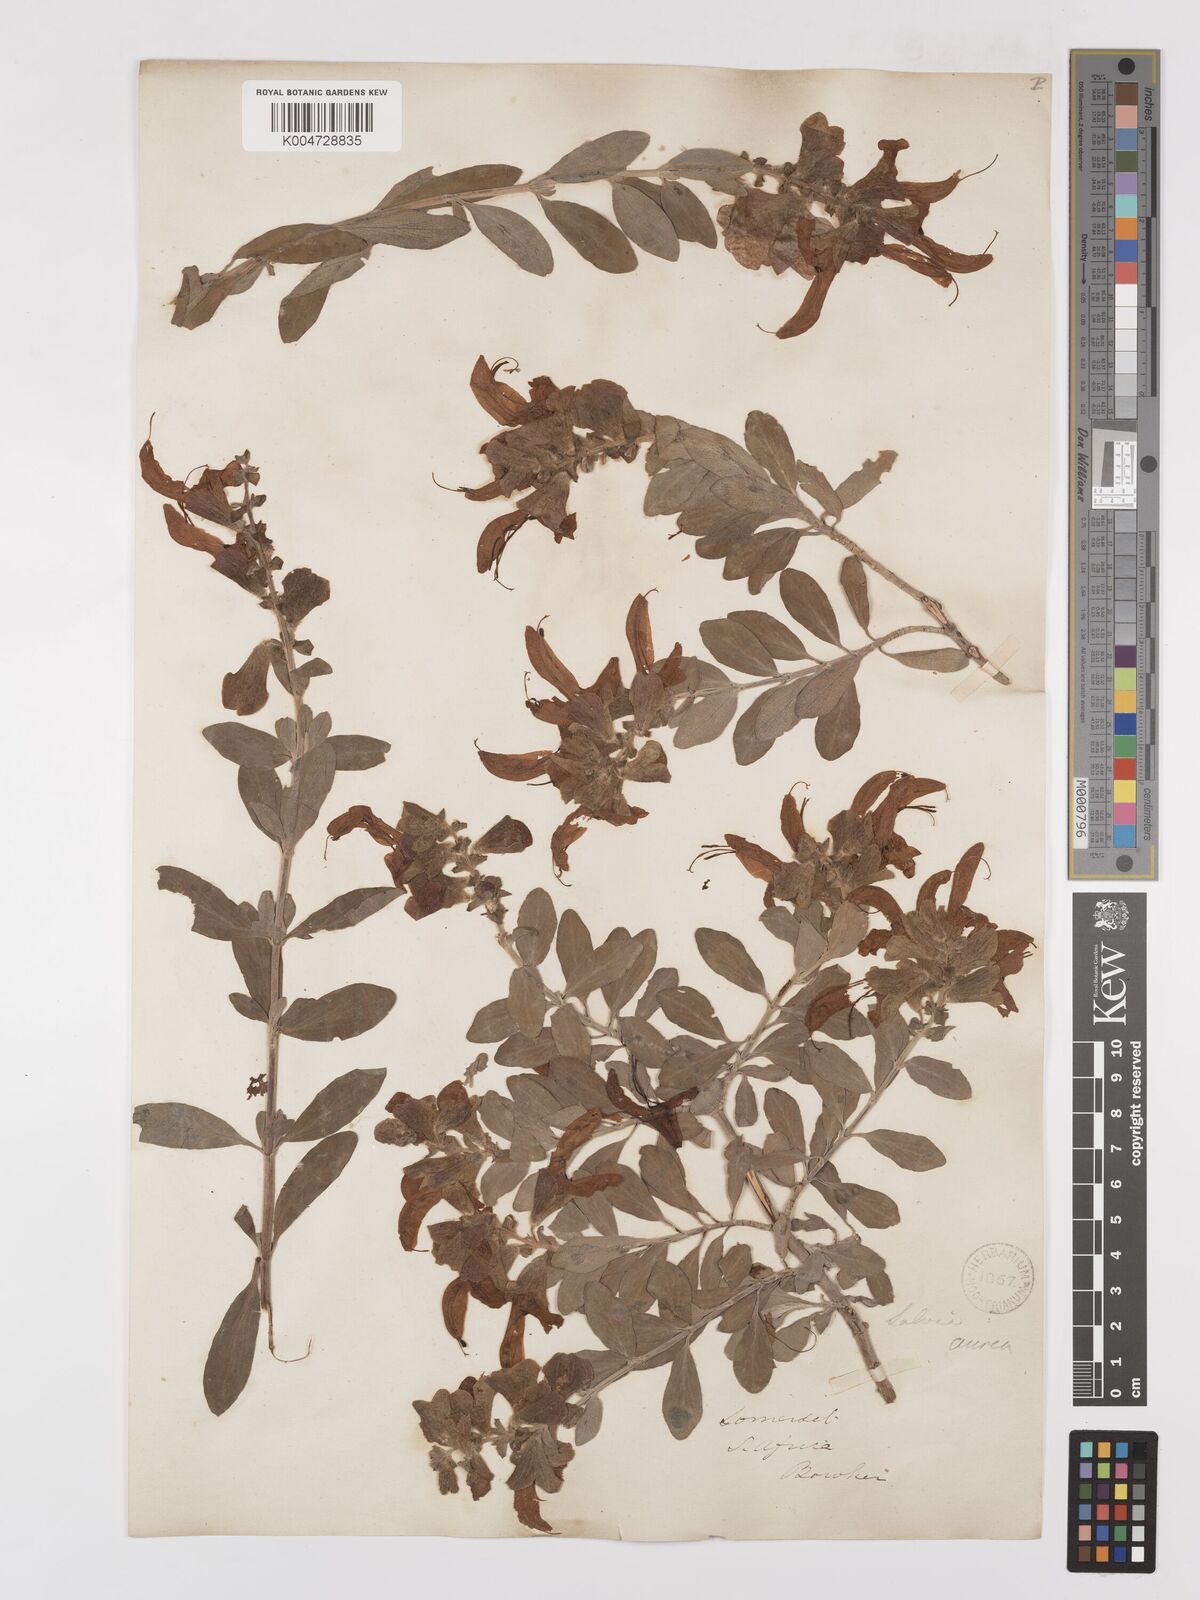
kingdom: Plantae
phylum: Tracheophyta
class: Magnoliopsida
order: Lamiales
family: Lamiaceae
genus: Salvia
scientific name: Salvia aurea
